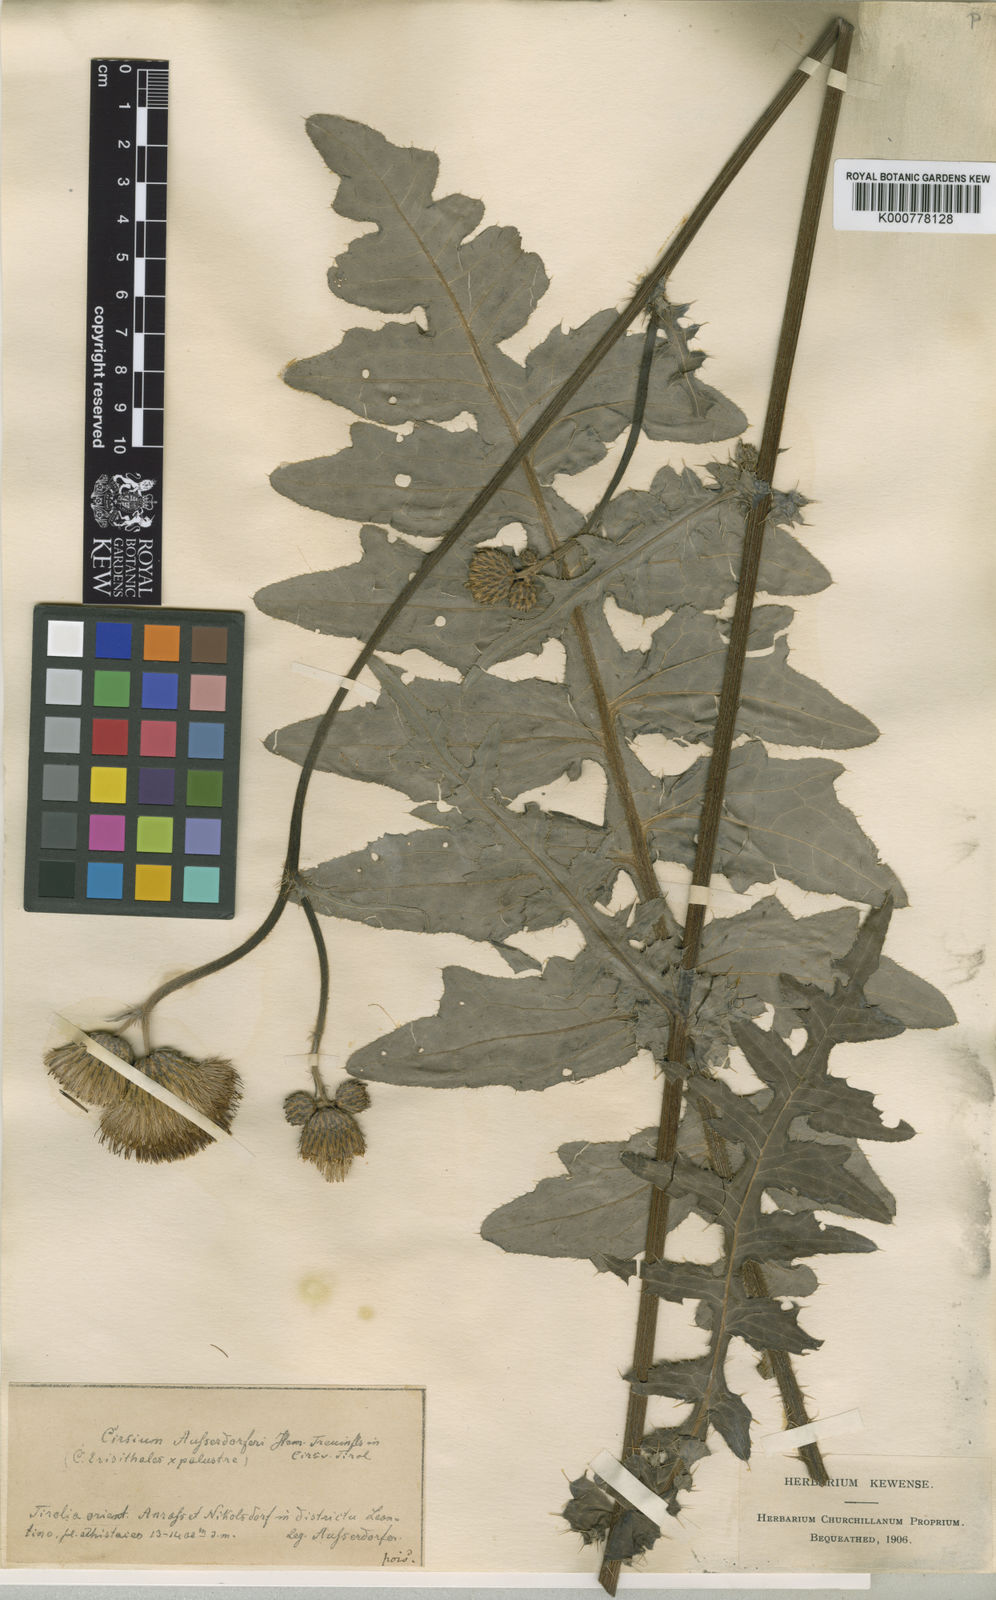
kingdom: Plantae
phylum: Tracheophyta
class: Magnoliopsida
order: Asterales
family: Asteraceae
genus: Cirsium
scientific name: Cirsium palustre
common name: Marsh thistle
